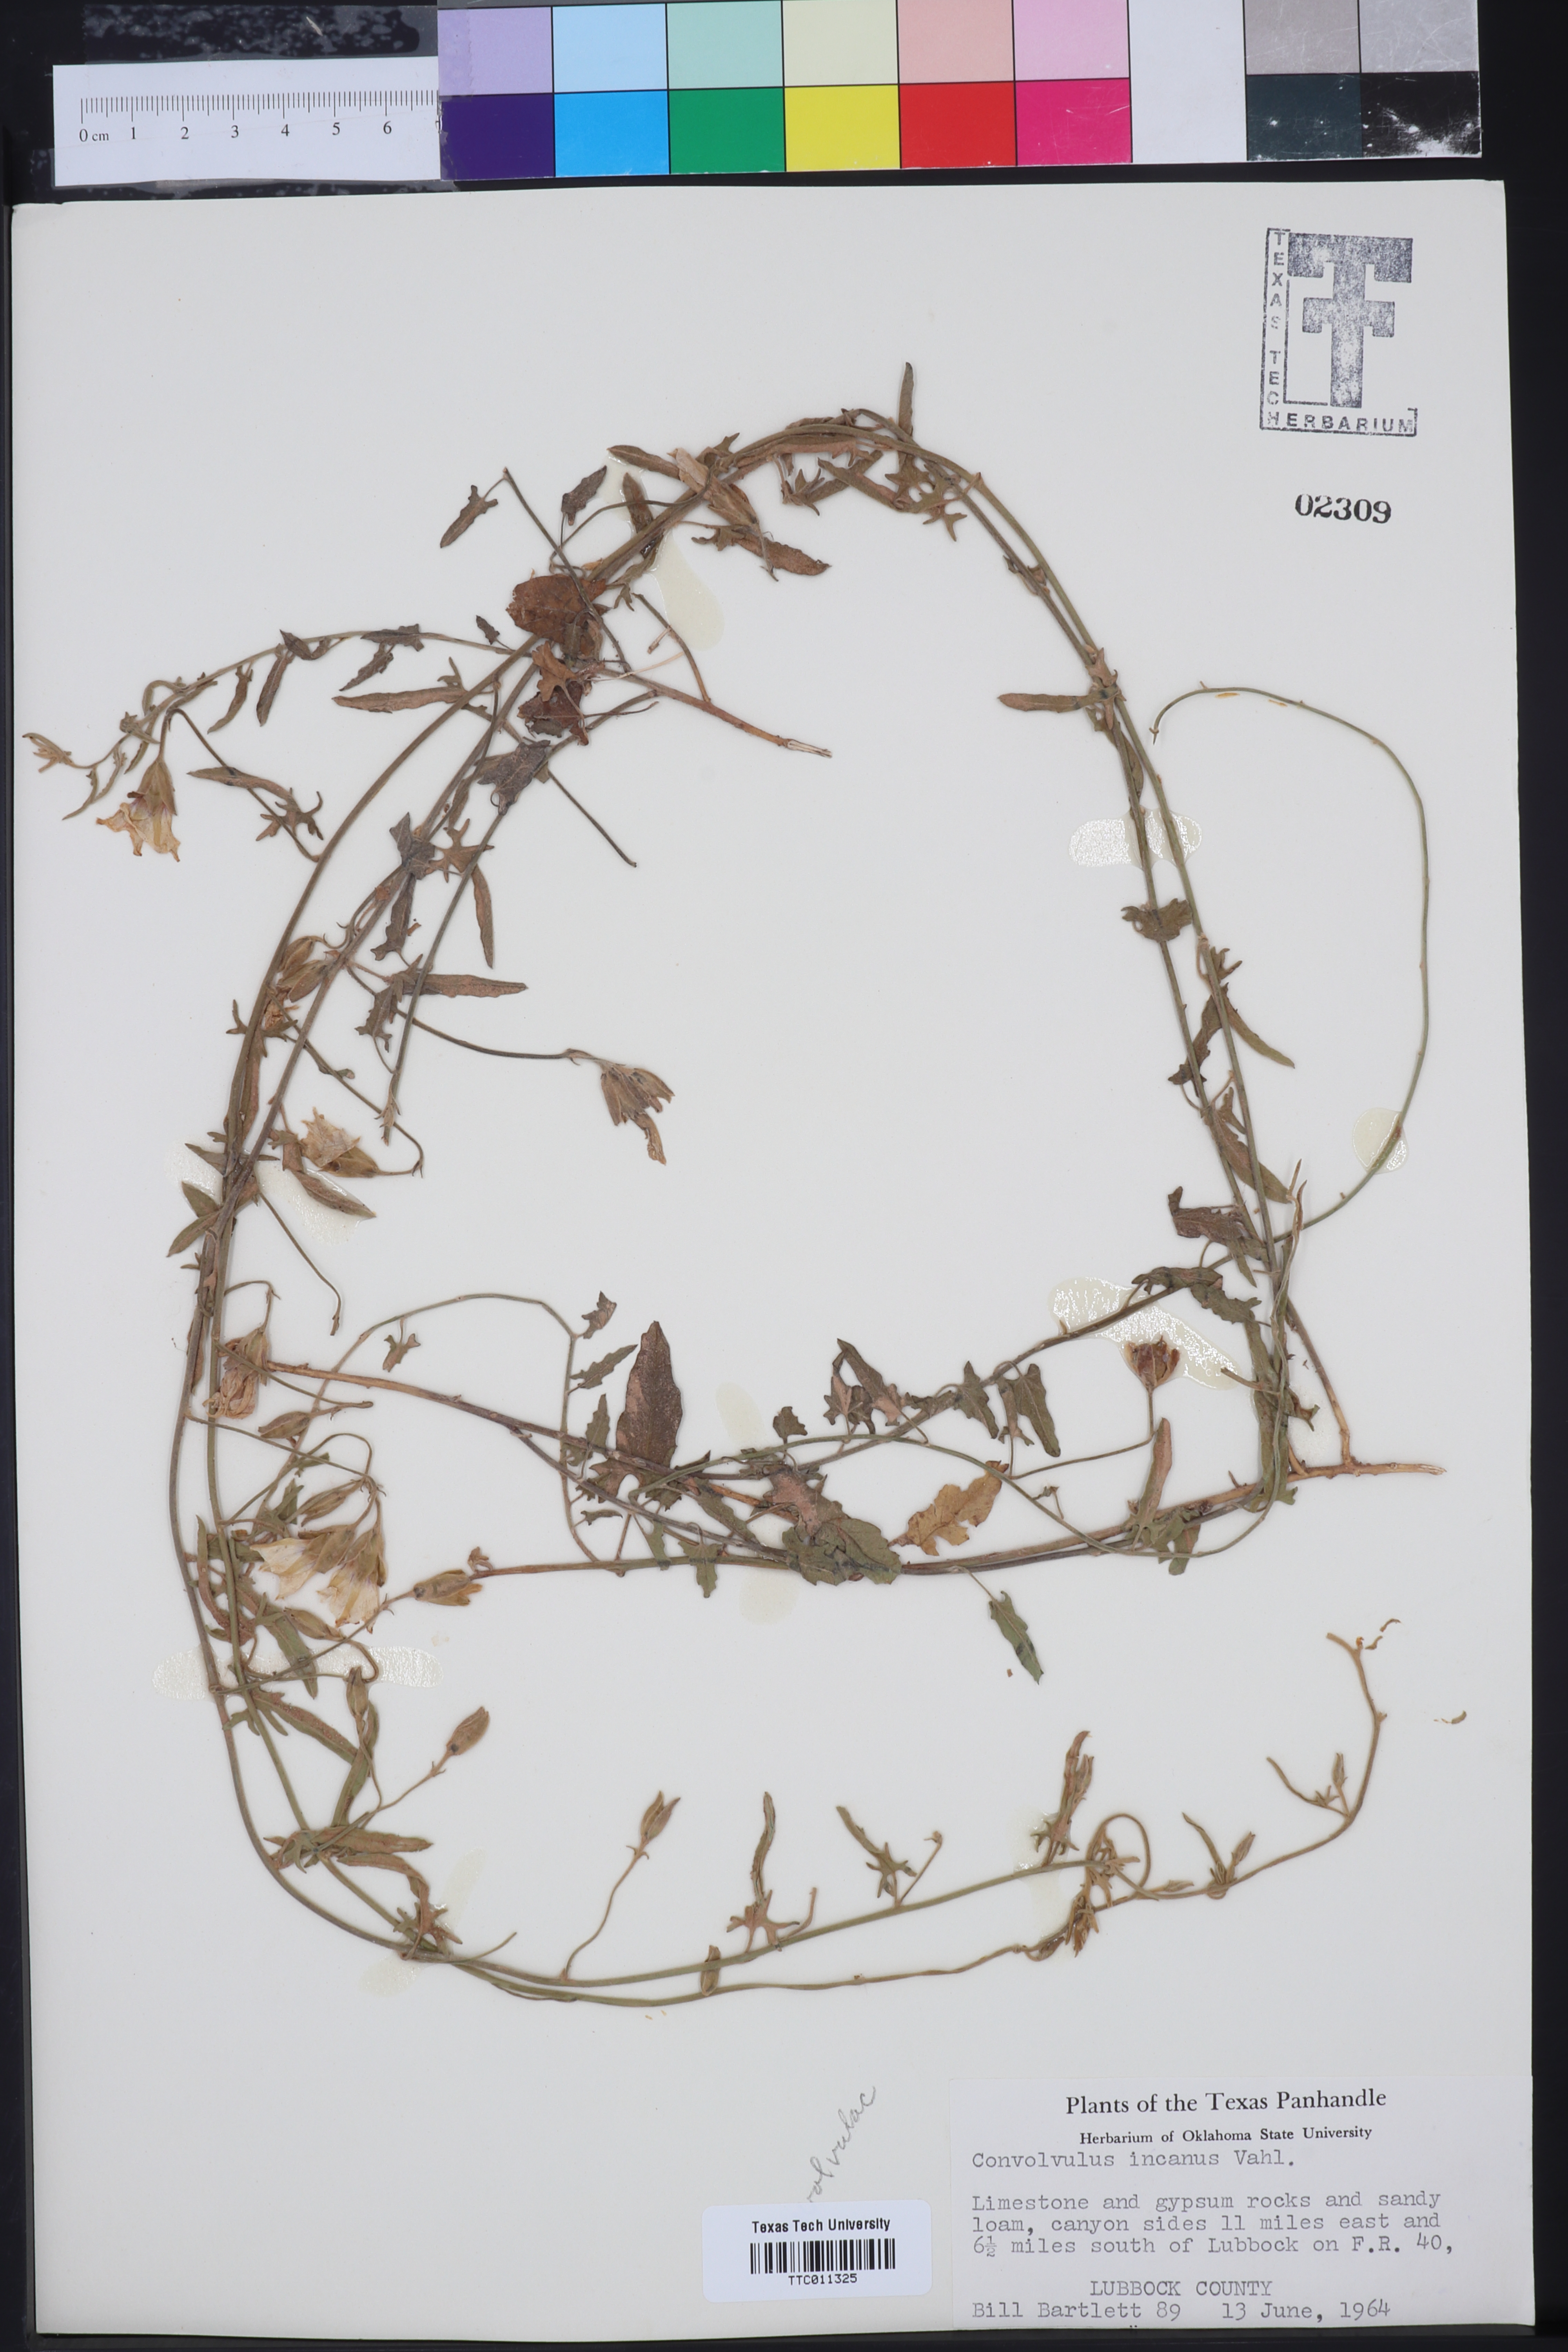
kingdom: Plantae
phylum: Tracheophyta
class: Magnoliopsida
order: Solanales
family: Convolvulaceae
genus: Convolvulus
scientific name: Convolvulus hermanniae
